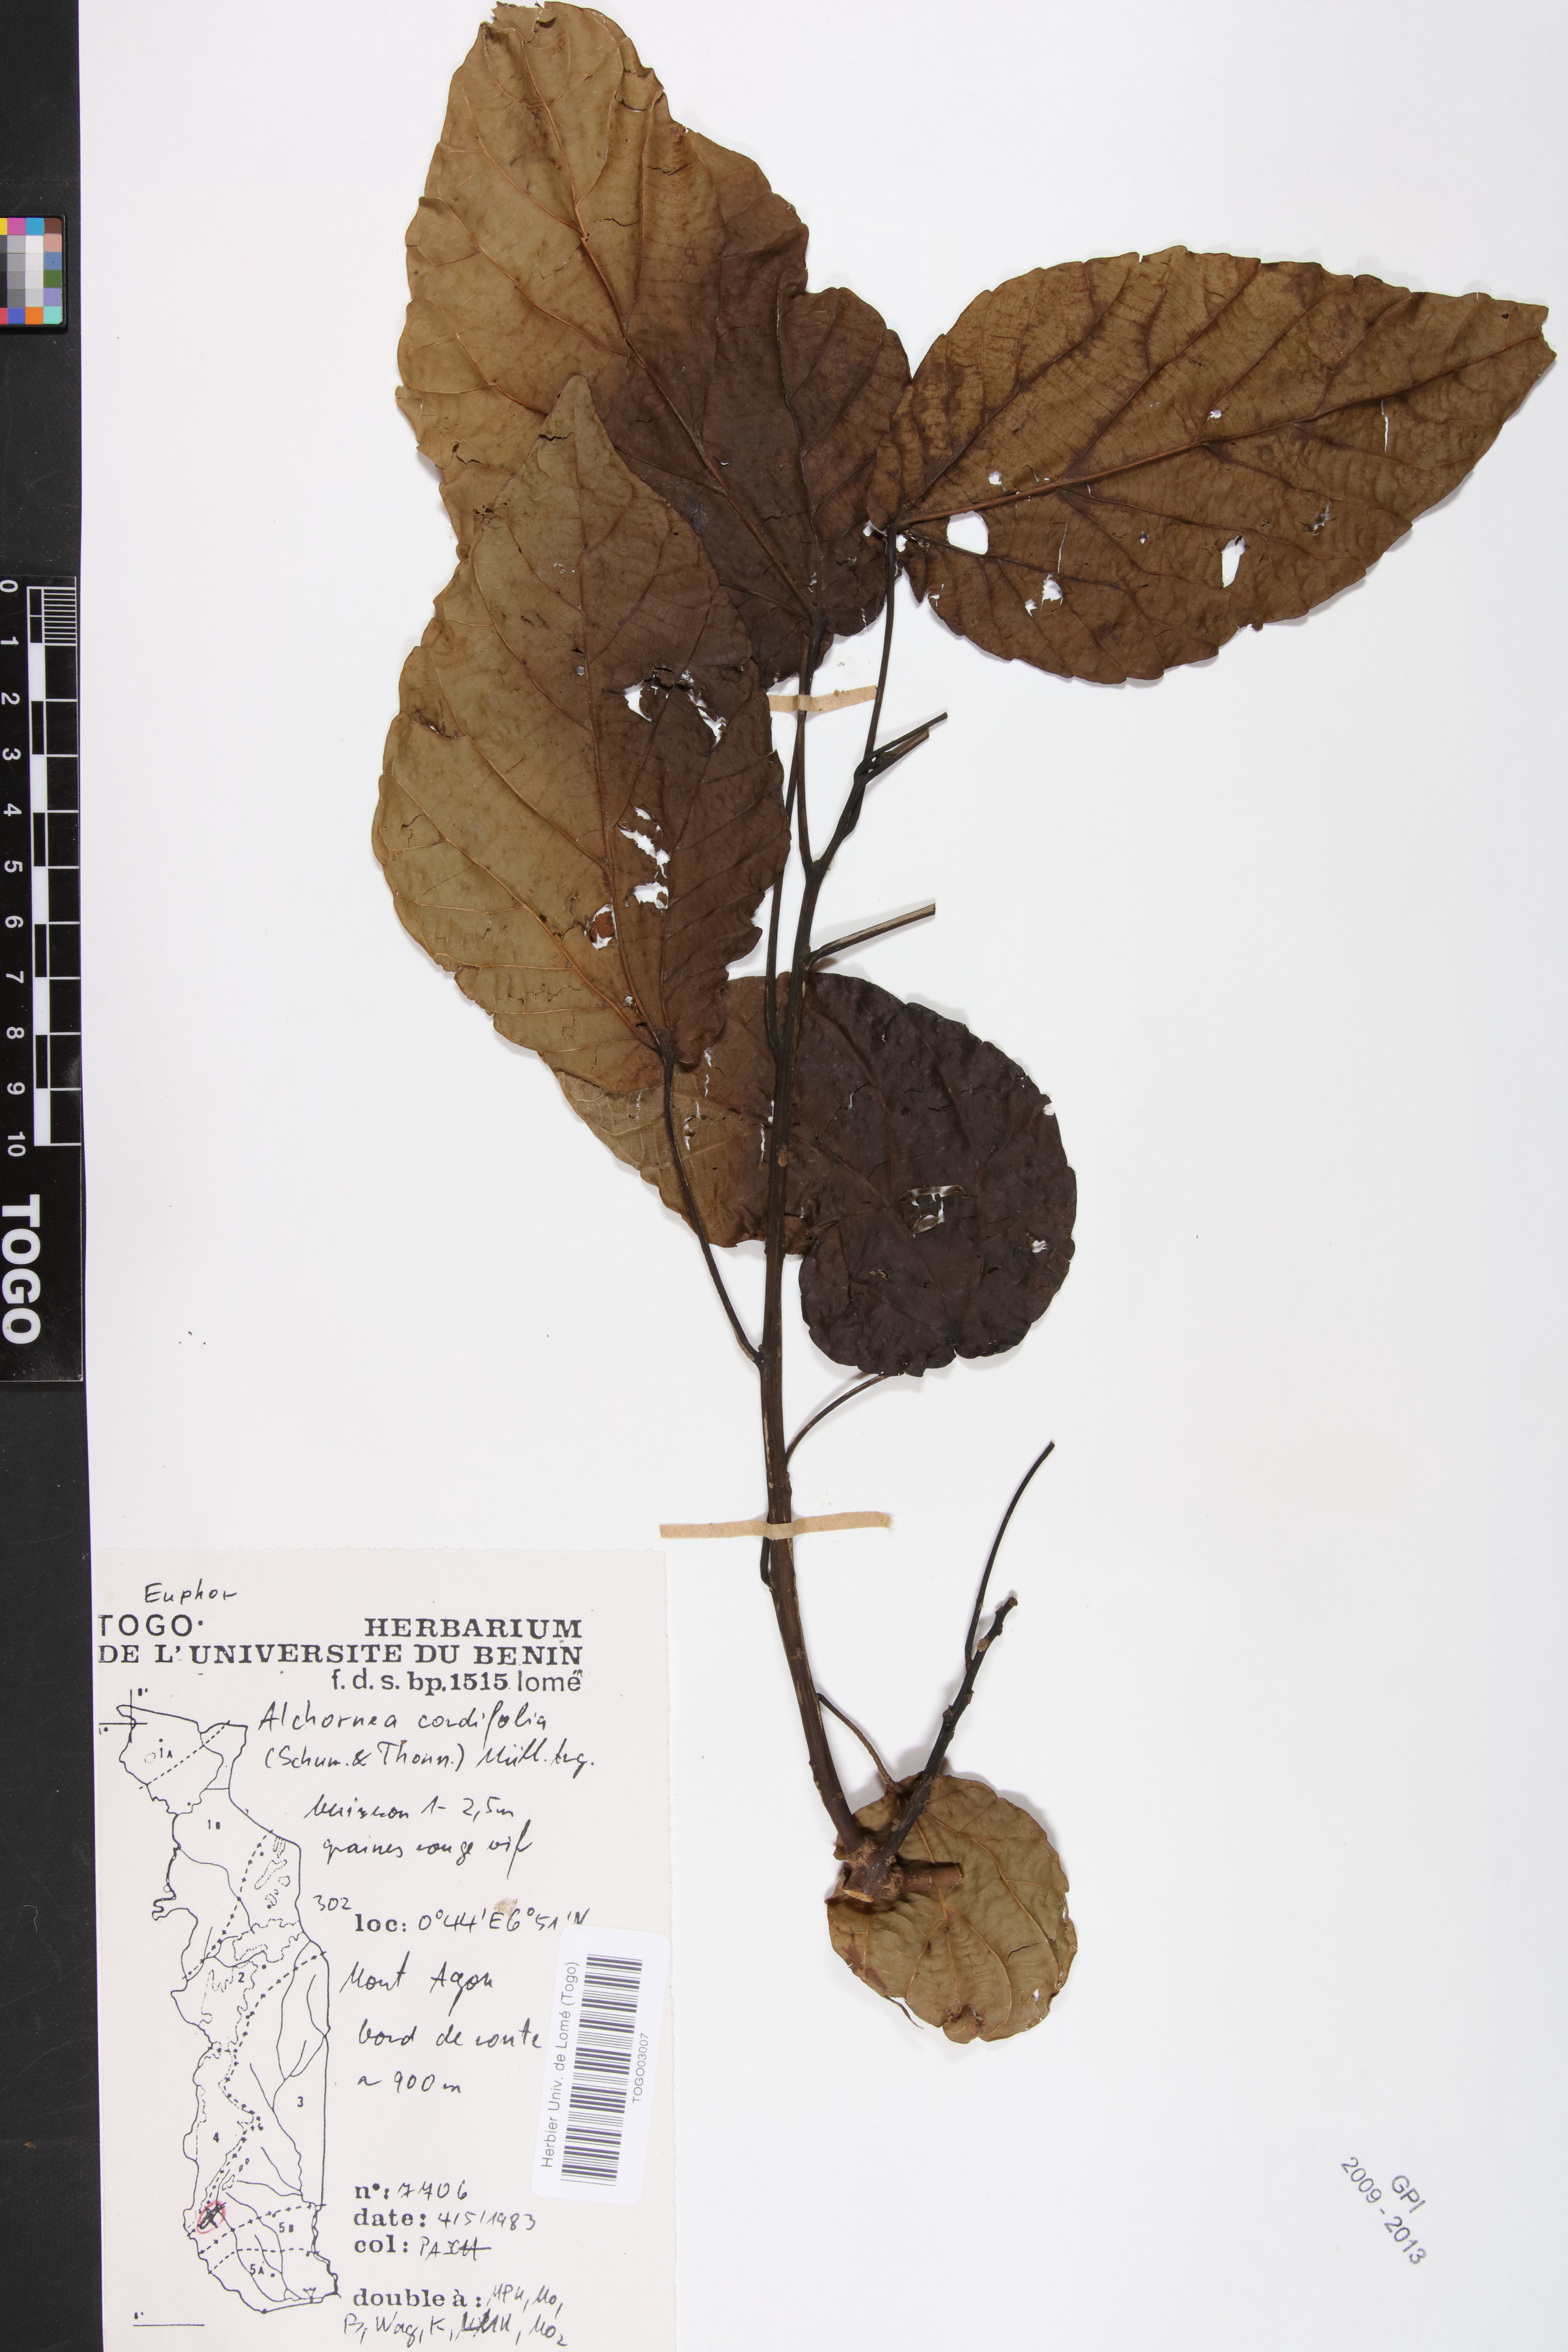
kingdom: Plantae
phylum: Tracheophyta
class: Magnoliopsida
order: Malpighiales
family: Euphorbiaceae
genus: Alchornea
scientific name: Alchornea cordifolia
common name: Christmasbush
